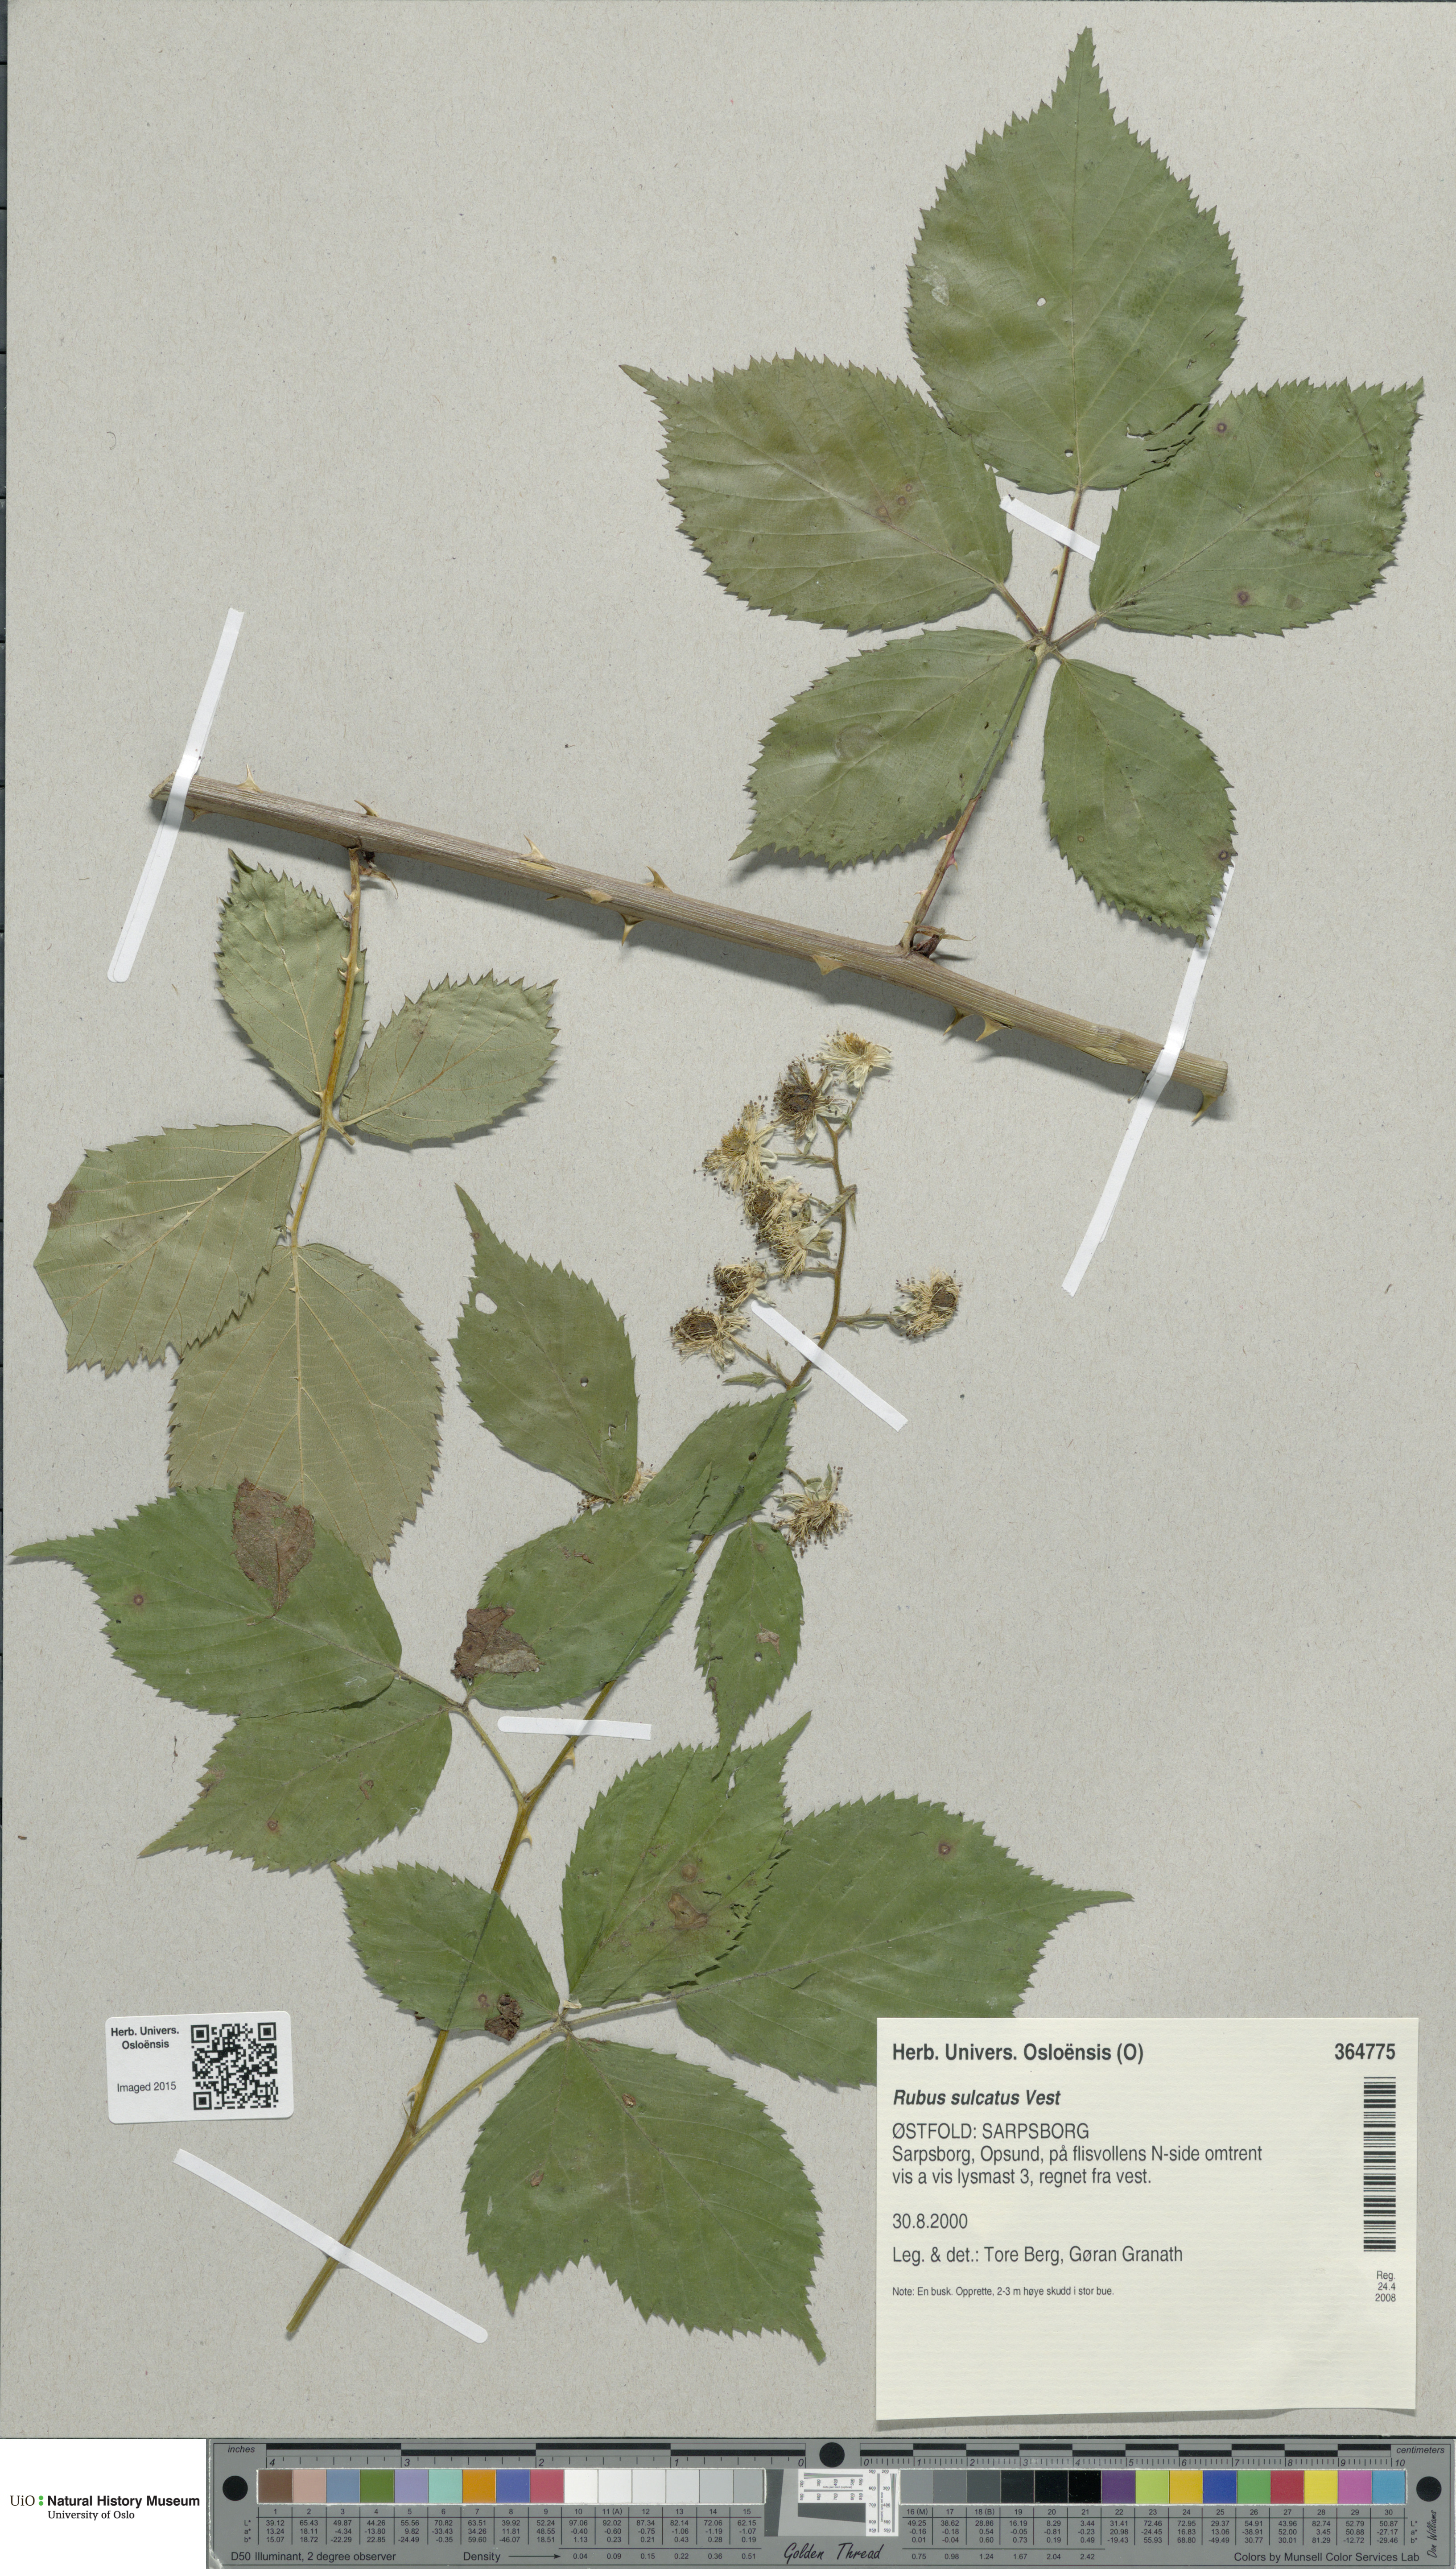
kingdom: Plantae
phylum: Tracheophyta
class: Magnoliopsida
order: Rosales
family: Rosaceae
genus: Rubus
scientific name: Rubus sulcatus
